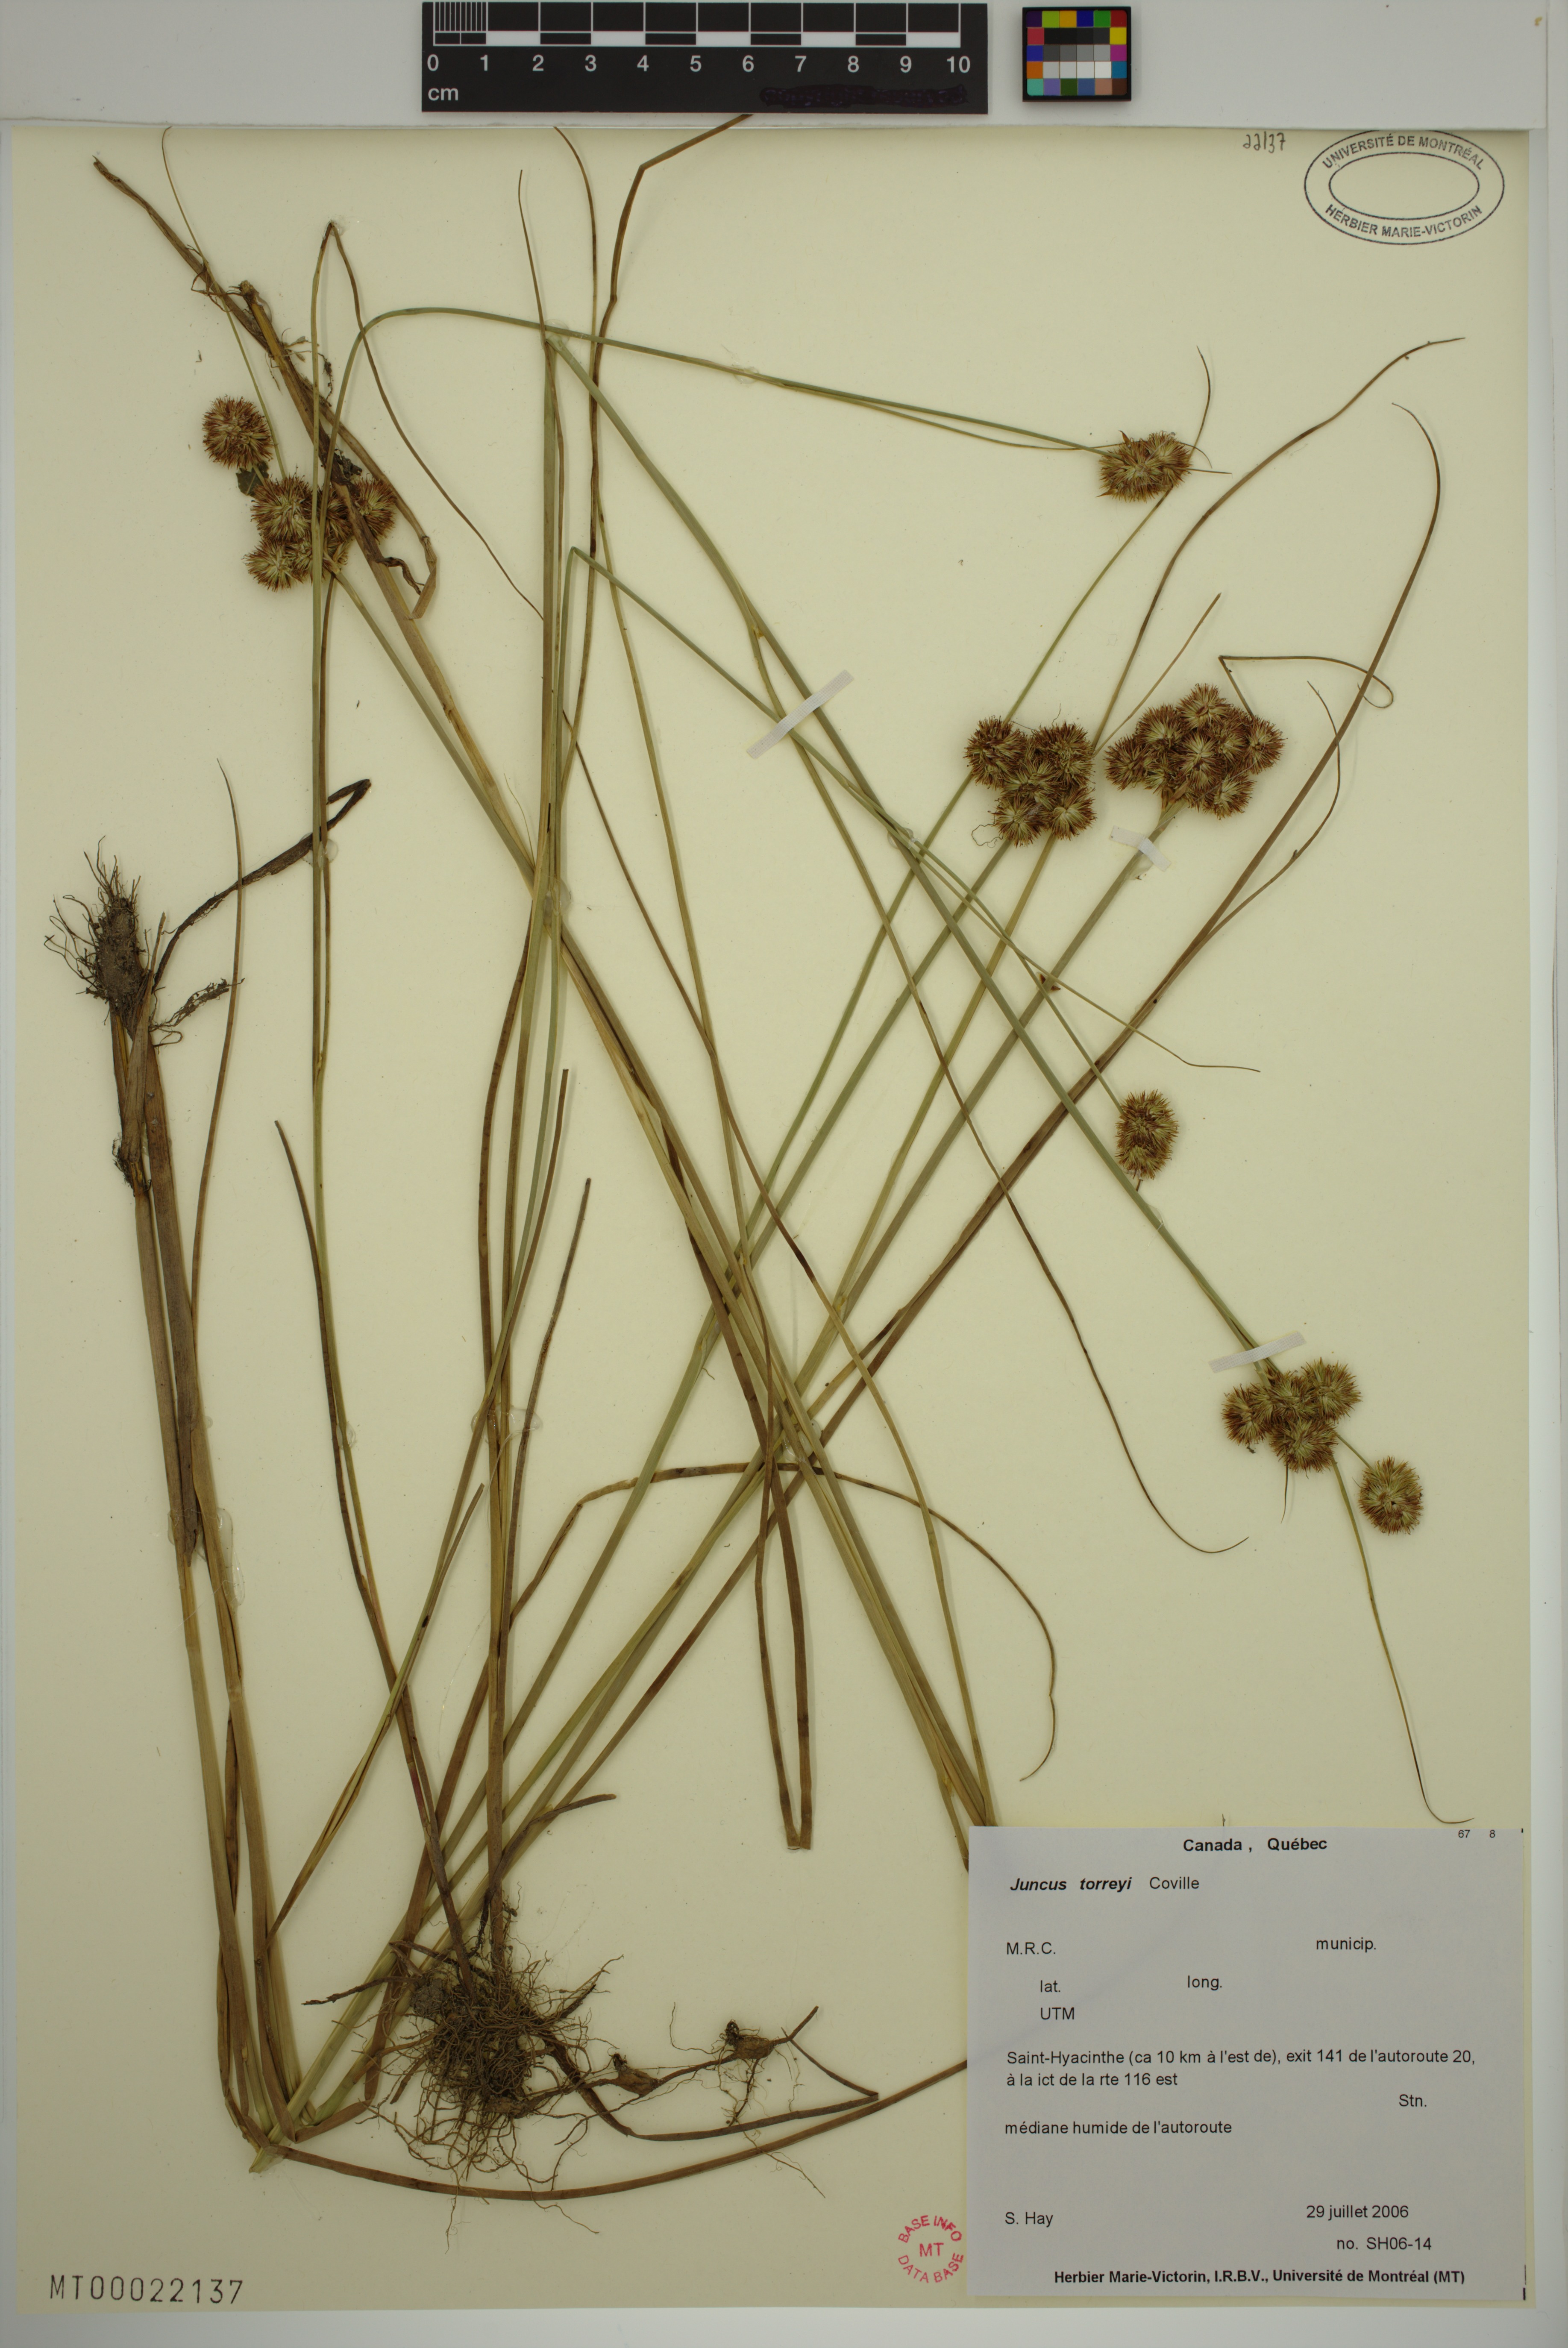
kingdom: Plantae
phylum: Tracheophyta
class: Liliopsida
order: Poales
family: Juncaceae
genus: Juncus
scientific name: Juncus torreyi
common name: Torrey's rush
